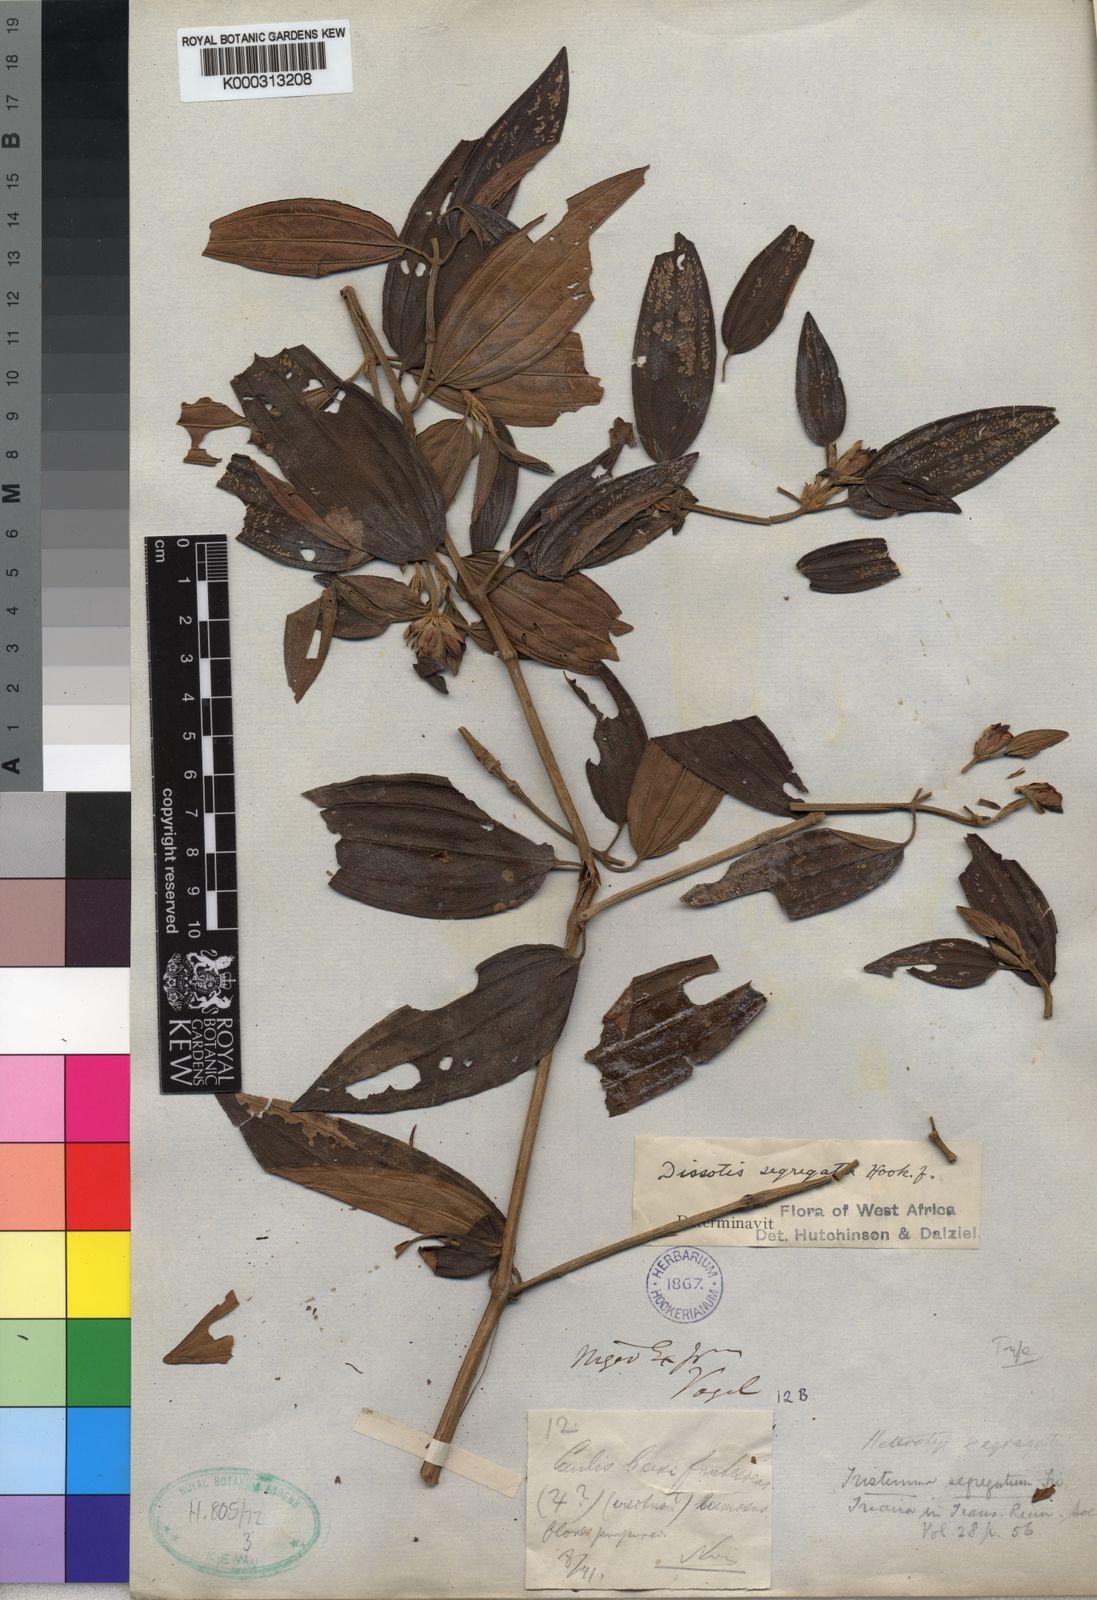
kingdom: Plantae
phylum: Tracheophyta
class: Magnoliopsida
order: Myrtales
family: Melastomataceae
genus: Melastomastrum
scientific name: Melastomastrum segregatum
